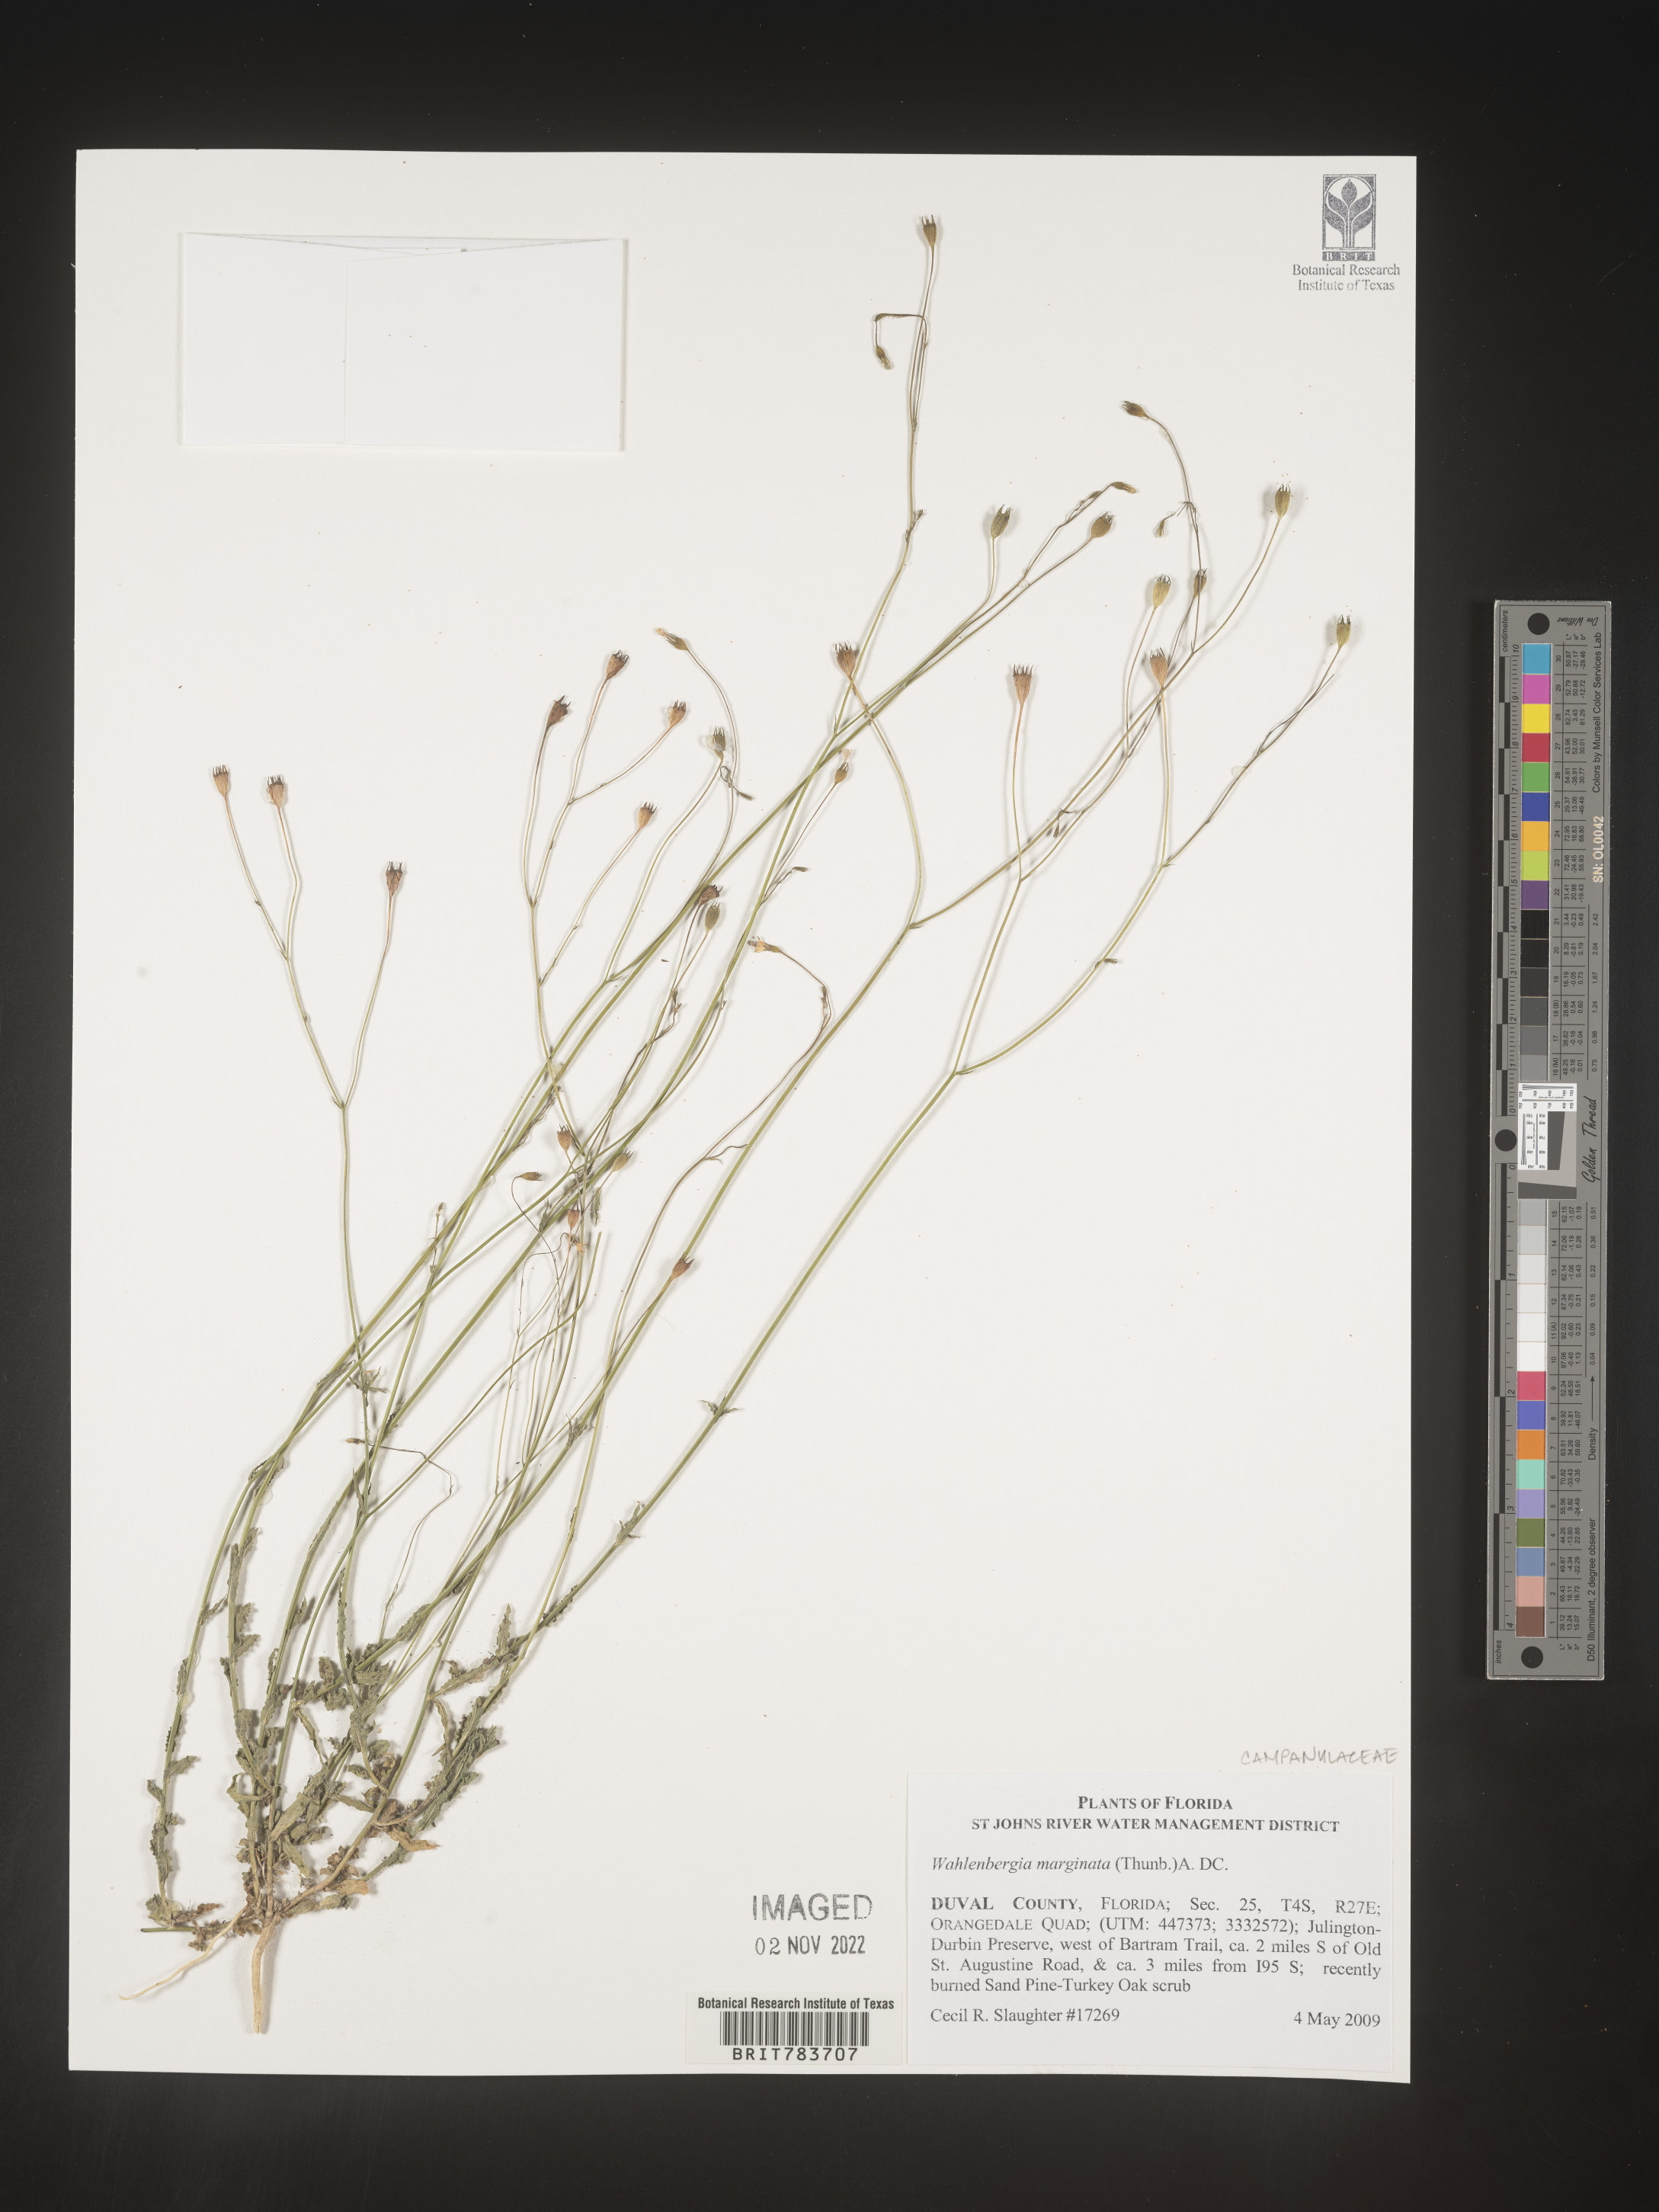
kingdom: Plantae
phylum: Tracheophyta
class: Magnoliopsida
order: Asterales
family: Campanulaceae
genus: Wahlenbergia
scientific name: Wahlenbergia marginata
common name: Southern rockbell
